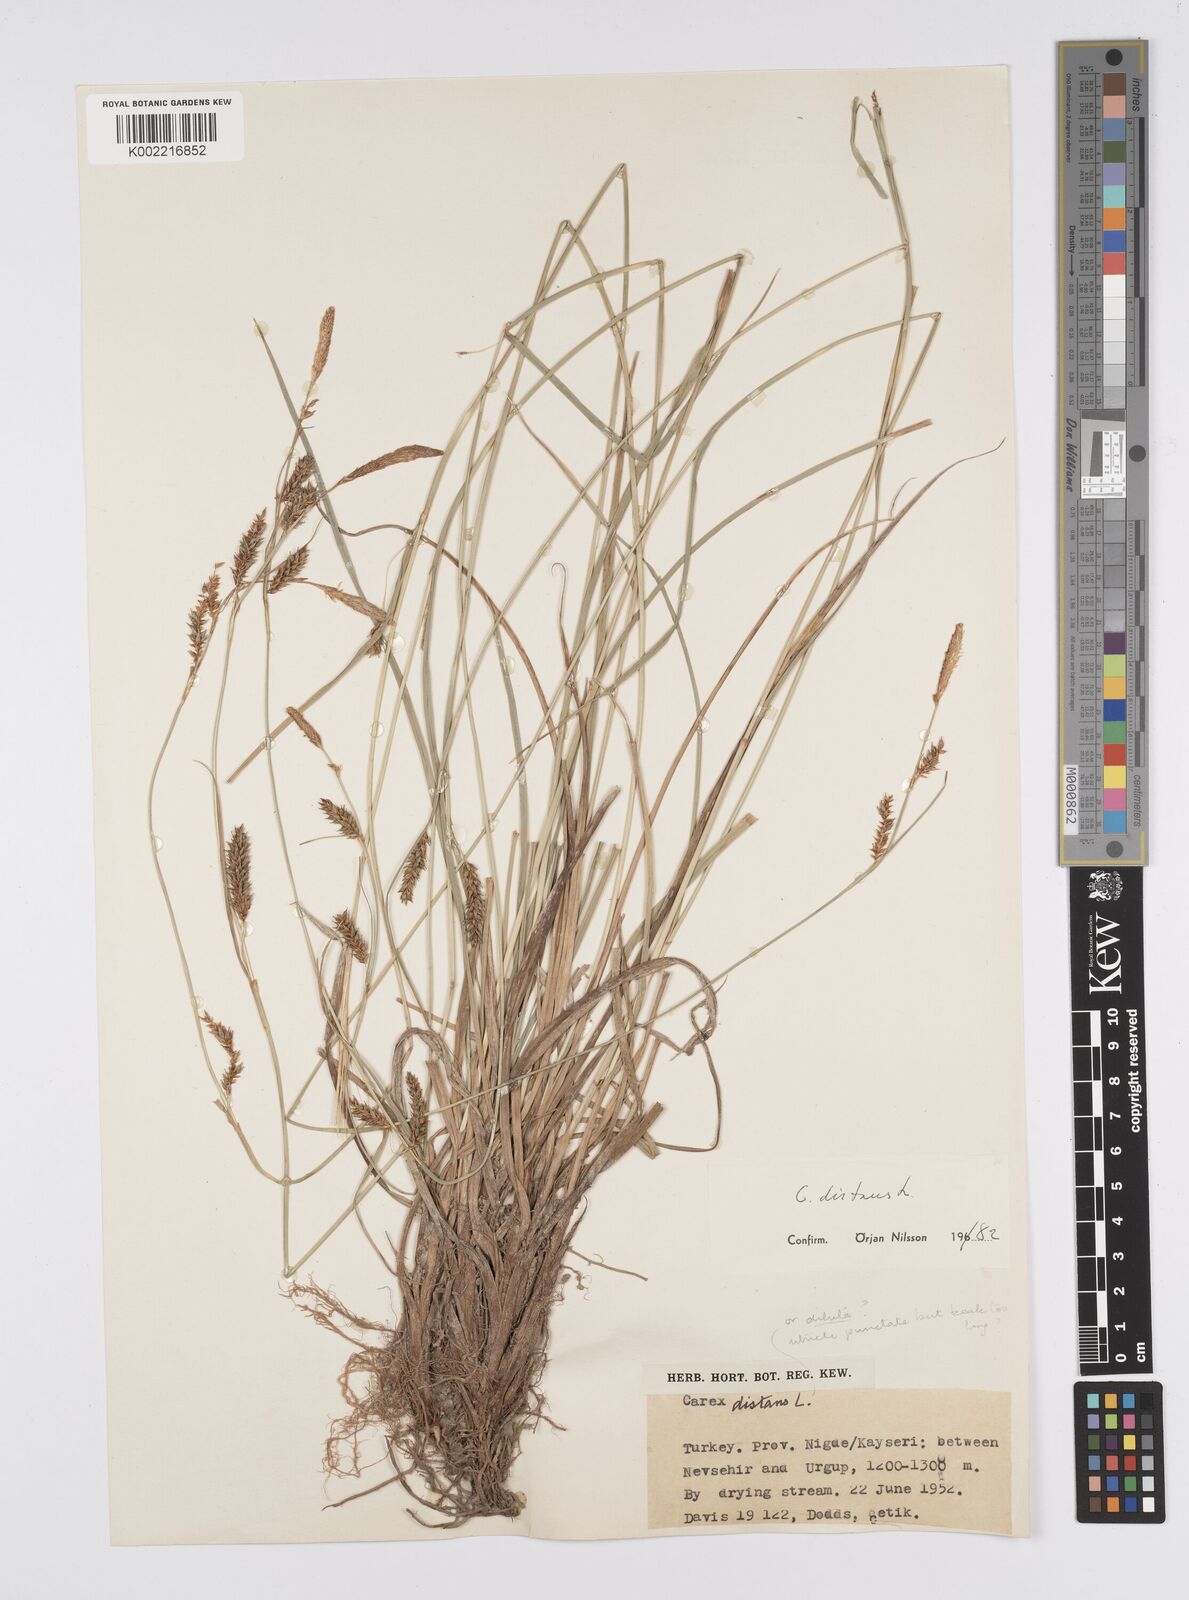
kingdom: Plantae
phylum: Tracheophyta
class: Liliopsida
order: Poales
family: Cyperaceae
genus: Carex
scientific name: Carex distans
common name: Distant sedge
